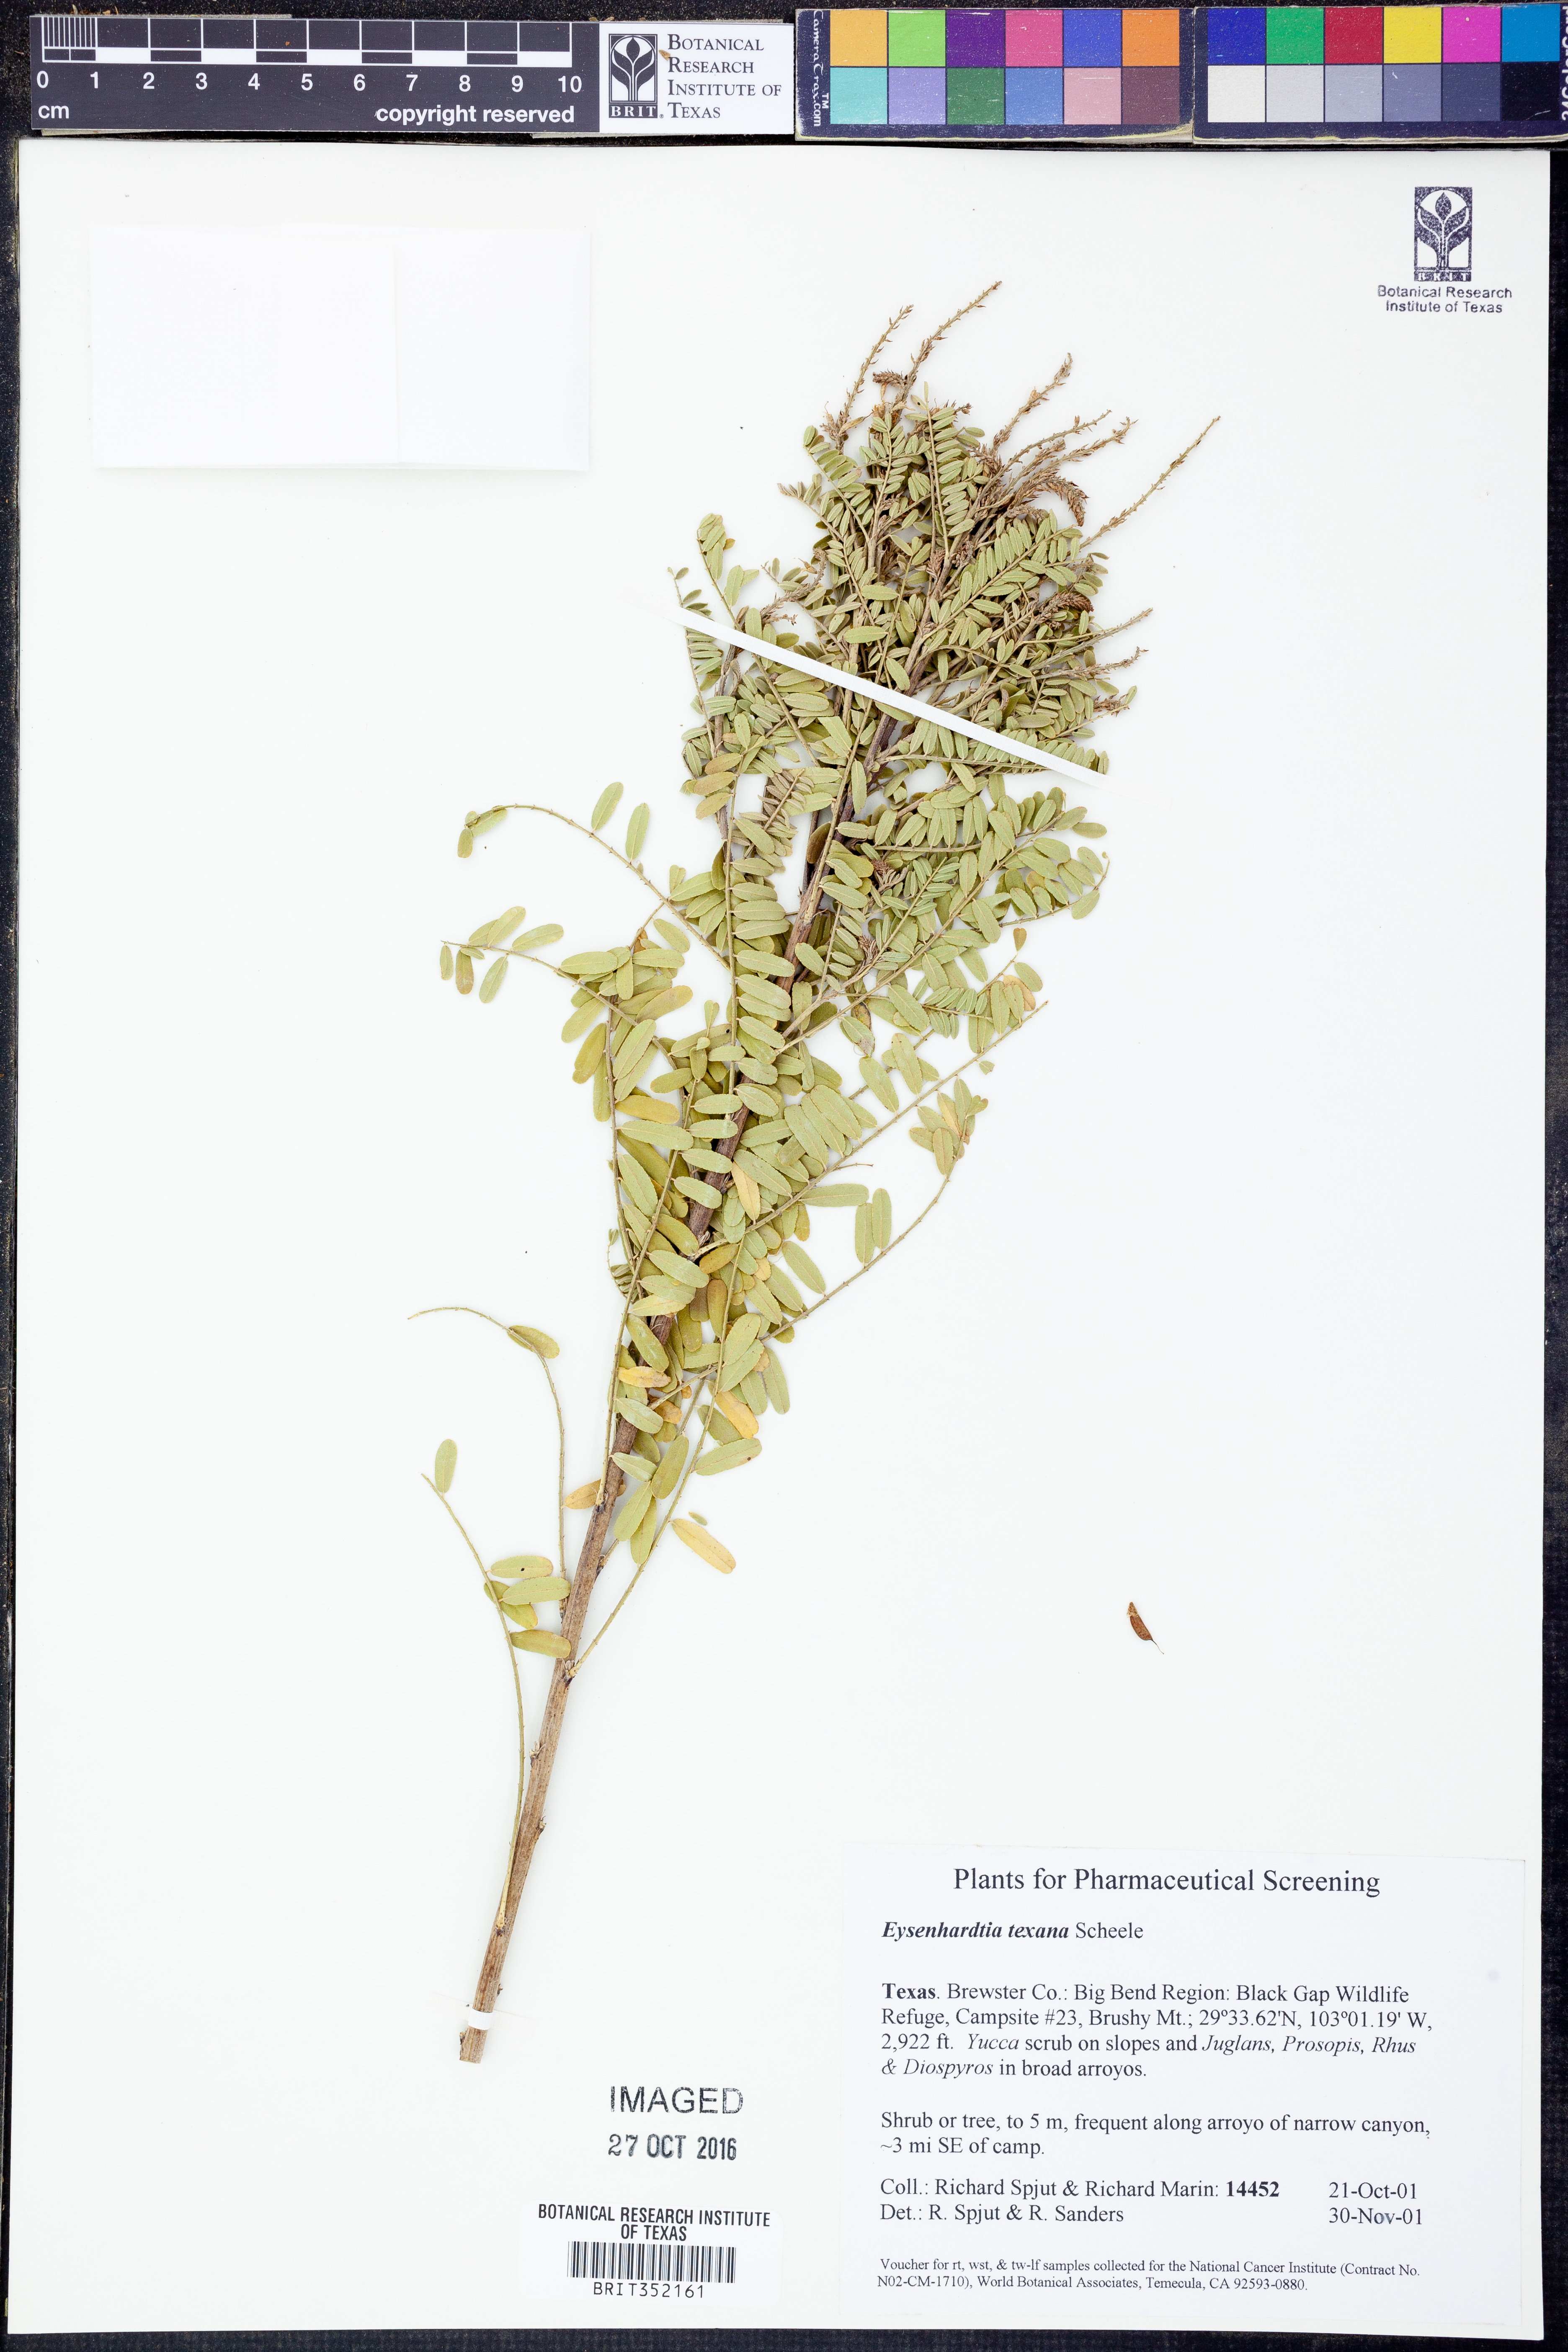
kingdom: Plantae
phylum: Tracheophyta
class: Magnoliopsida
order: Fabales
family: Fabaceae
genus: Eysenhardtia
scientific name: Eysenhardtia texana
